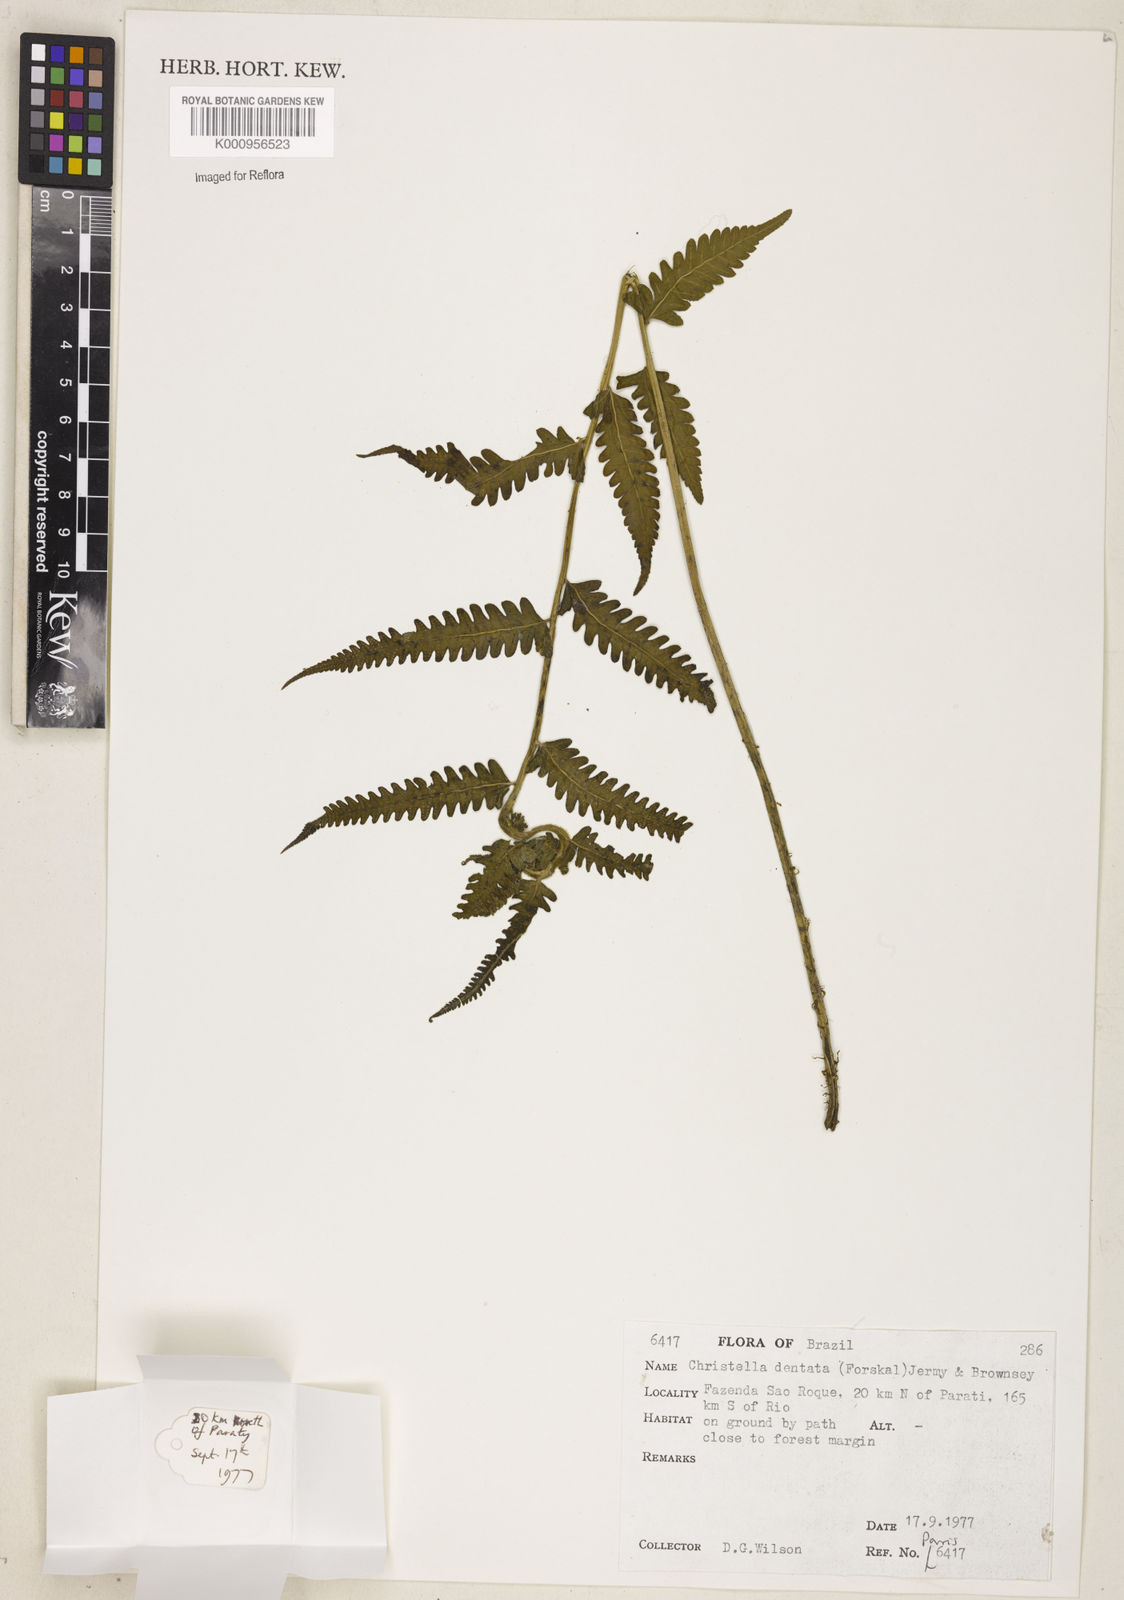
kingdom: Plantae
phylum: Tracheophyta
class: Polypodiopsida
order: Polypodiales
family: Thelypteridaceae
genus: Christella
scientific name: Christella dentata
